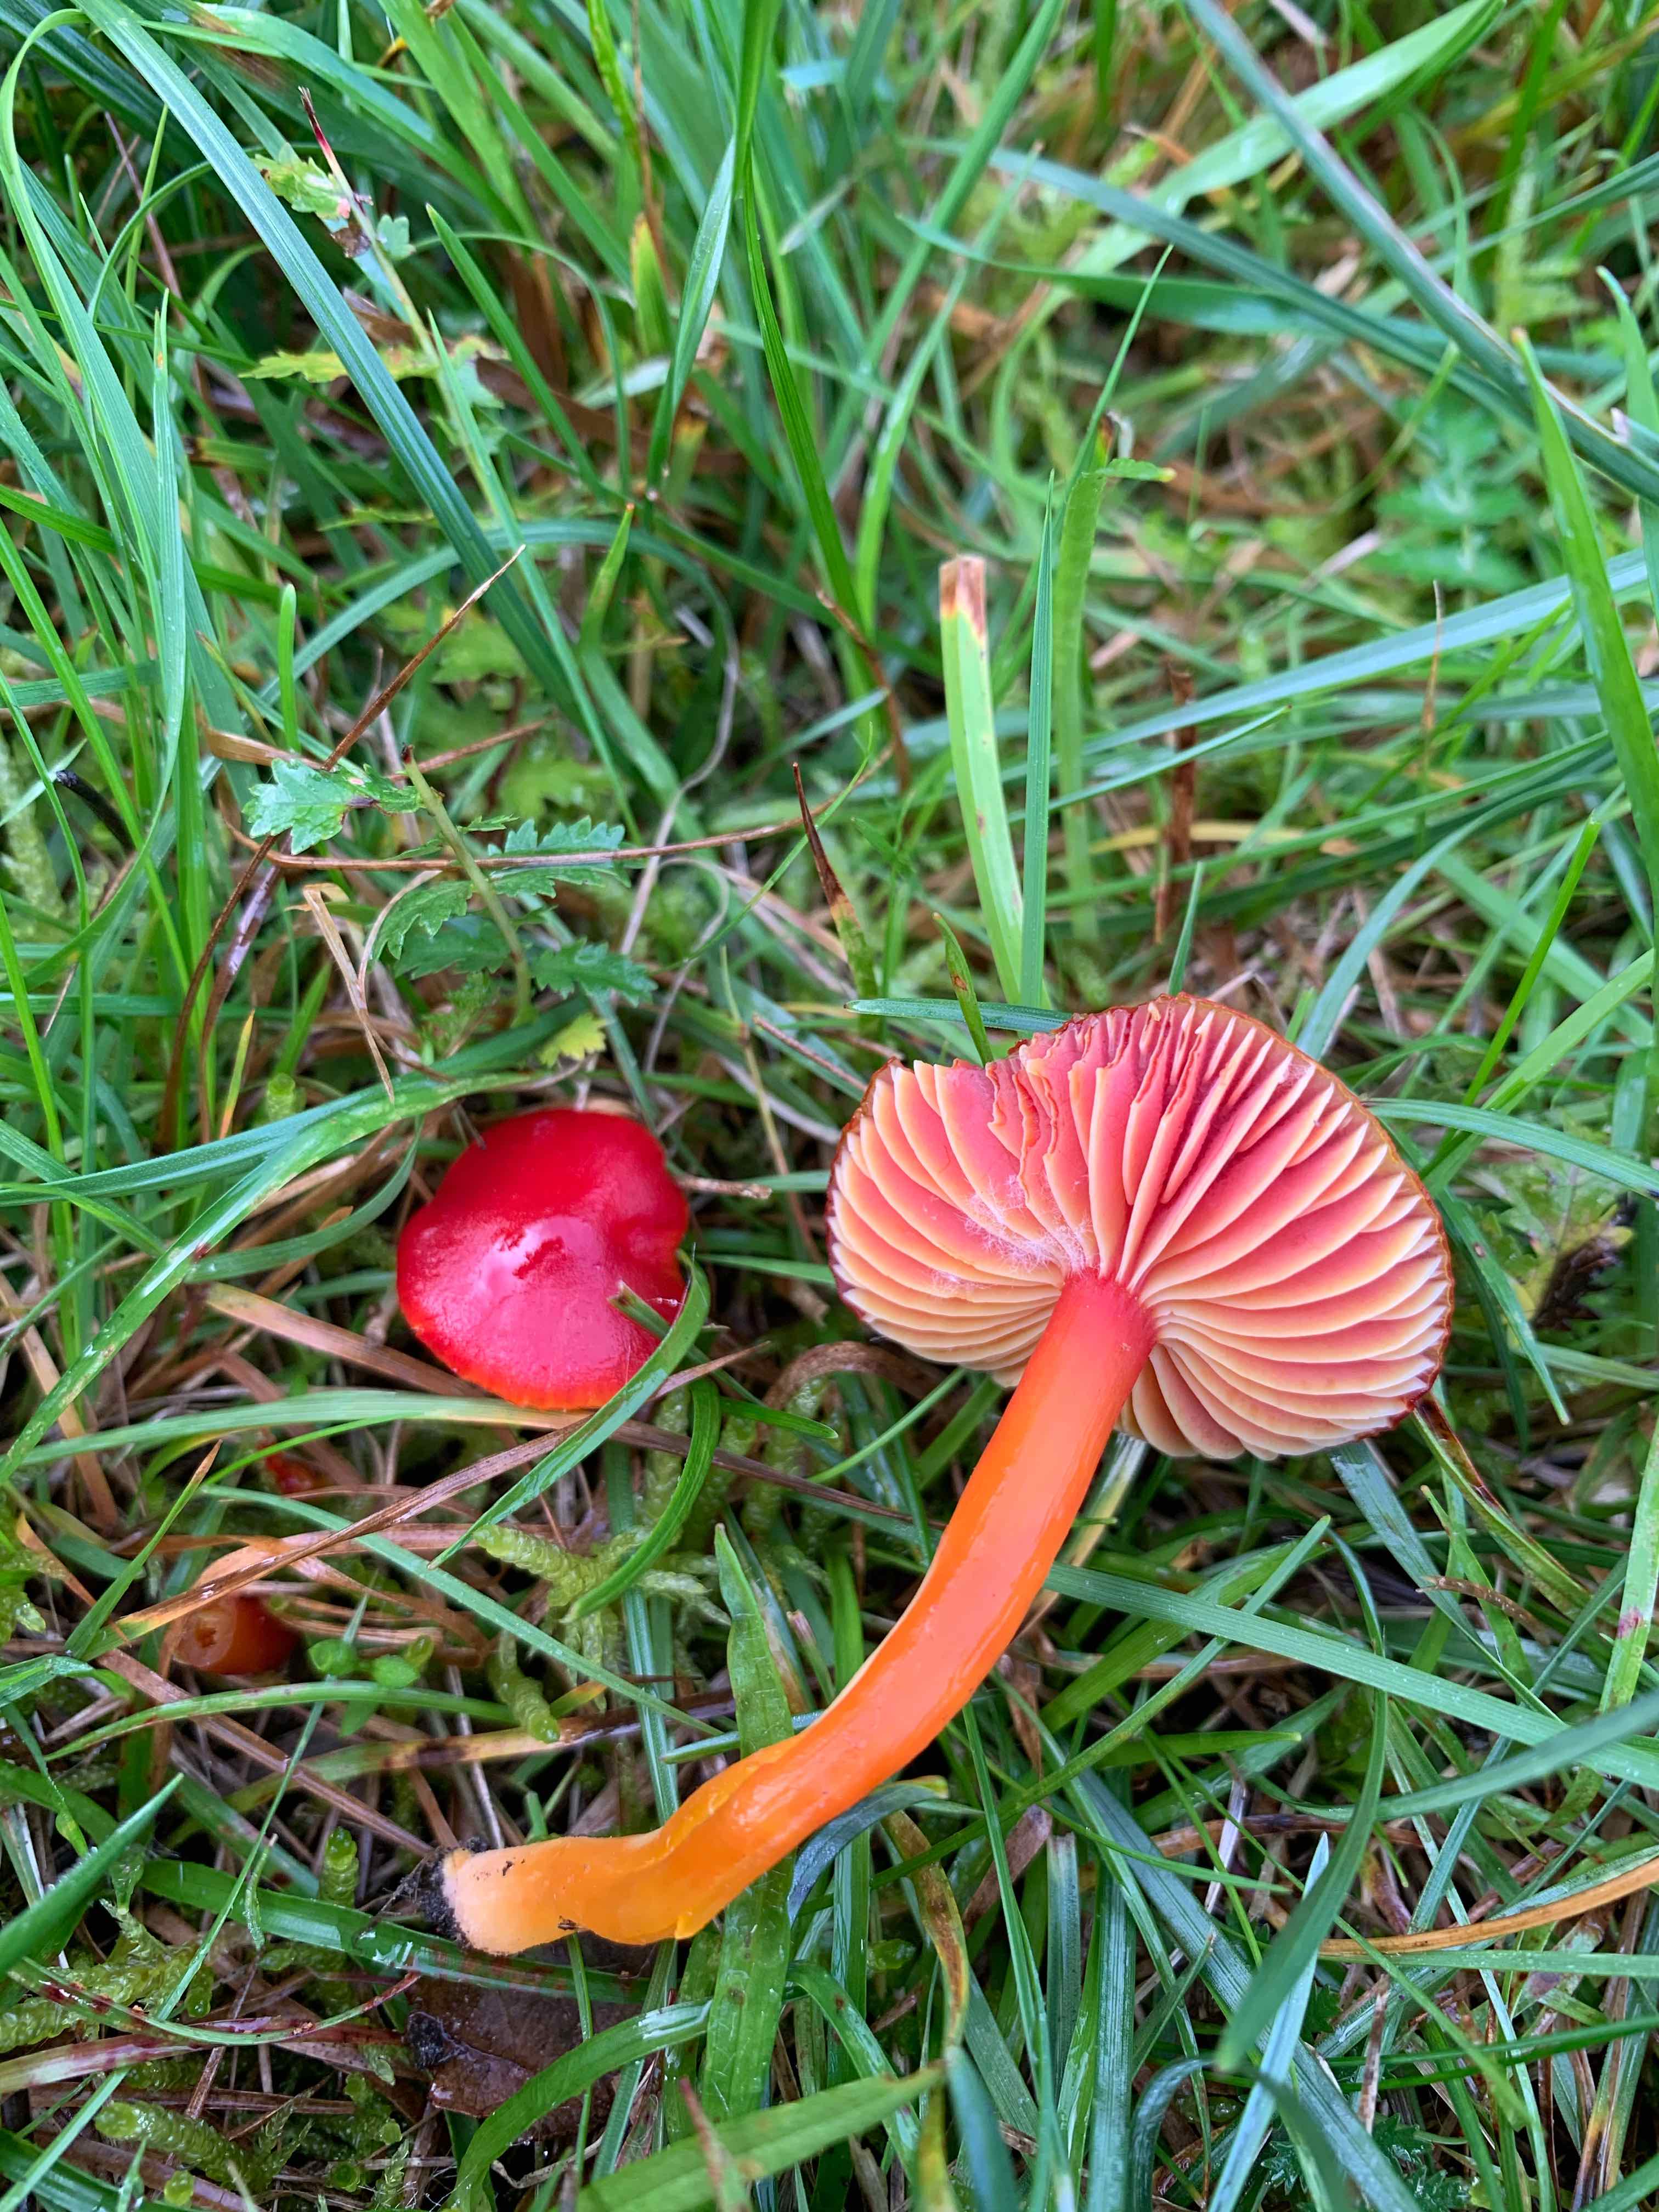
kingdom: Fungi
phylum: Basidiomycota
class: Agaricomycetes
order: Agaricales
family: Hygrophoraceae
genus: Hygrocybe
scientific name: Hygrocybe coccinea
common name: cinnober-vokshat
